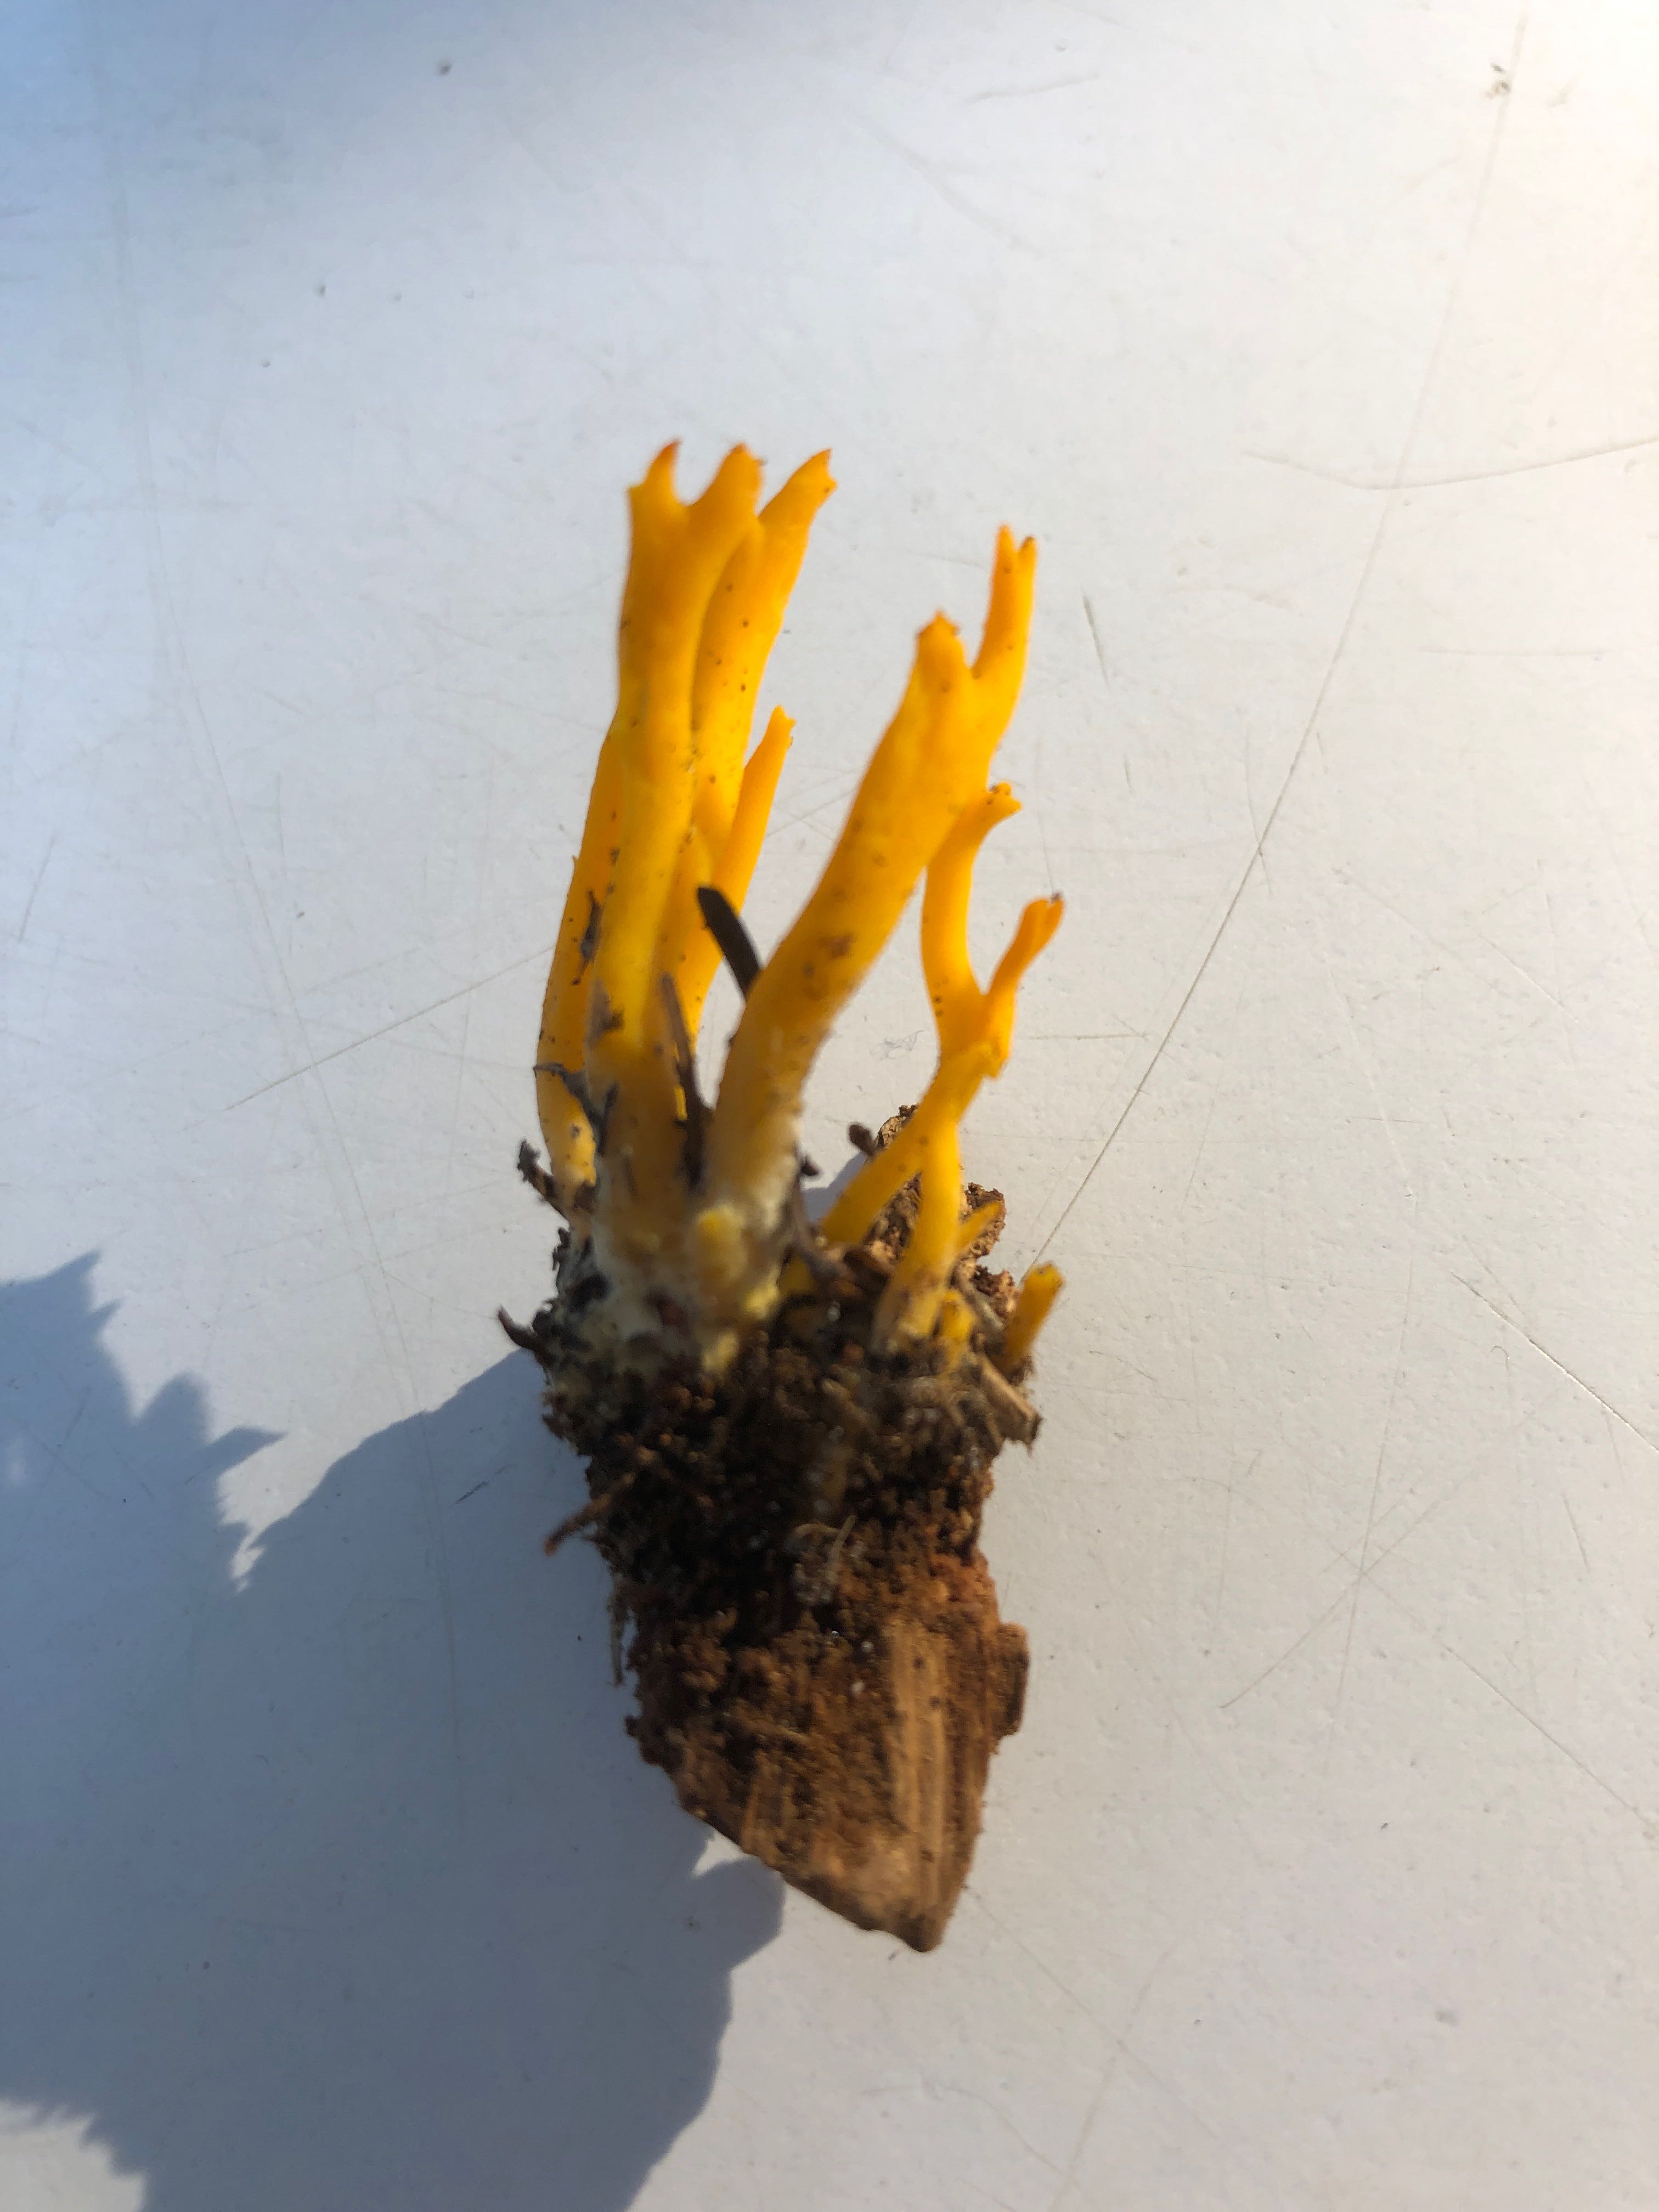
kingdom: Fungi
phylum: Basidiomycota
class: Dacrymycetes
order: Dacrymycetales
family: Dacrymycetaceae
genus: Calocera
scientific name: Calocera viscosa
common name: almindelig guldgaffel
